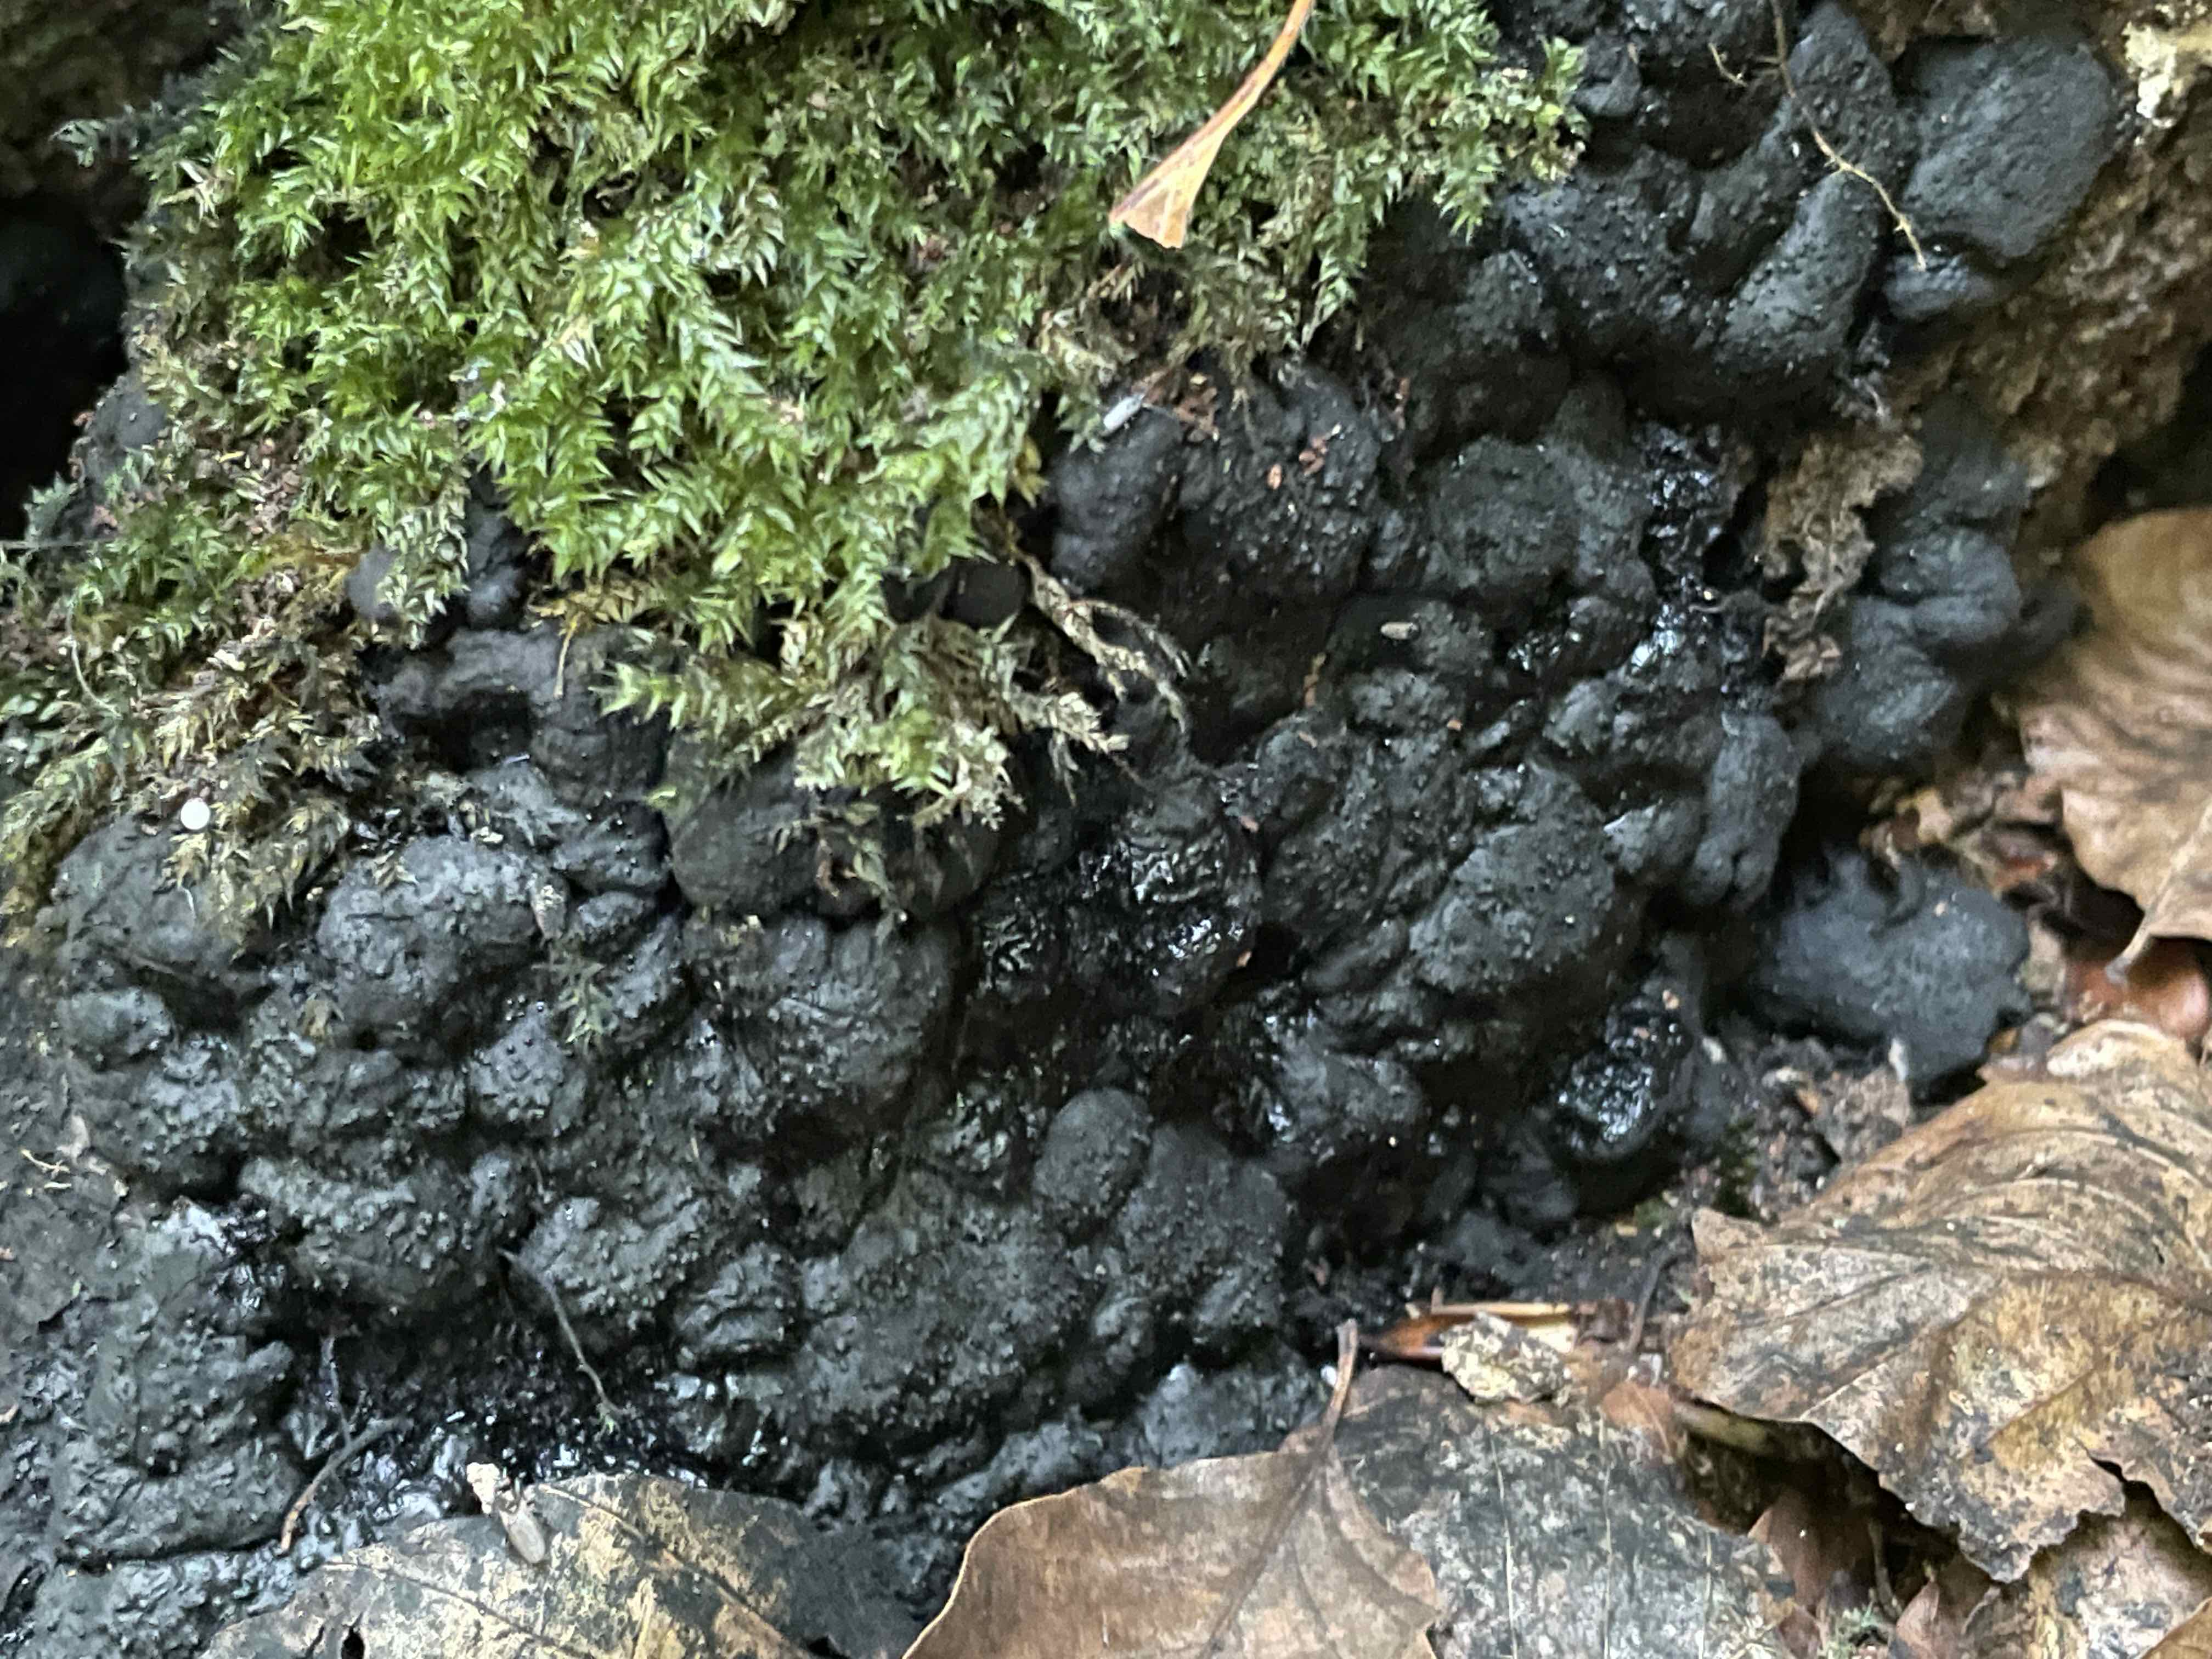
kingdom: Fungi
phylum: Ascomycota
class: Sordariomycetes
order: Xylariales
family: Xylariaceae
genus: Kretzschmaria
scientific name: Kretzschmaria deusta
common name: stor kulsvamp
